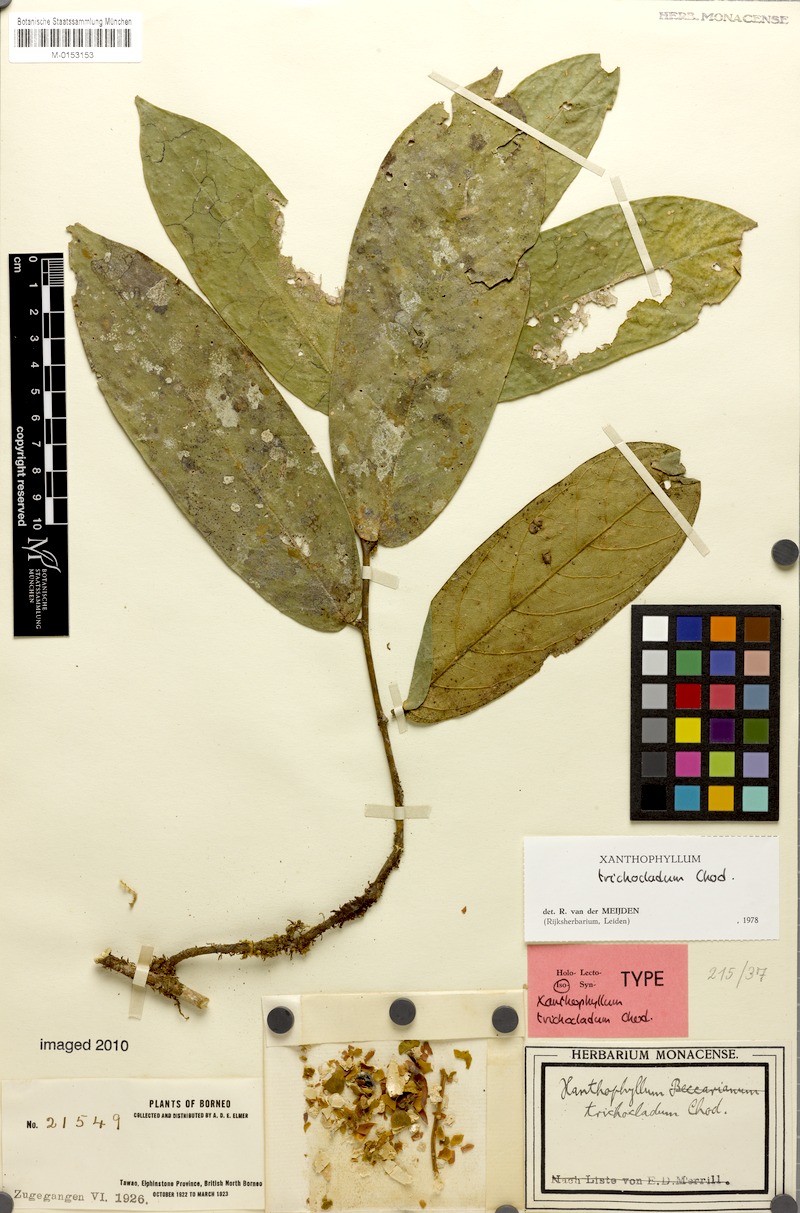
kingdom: Plantae
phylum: Tracheophyta
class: Magnoliopsida
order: Fabales
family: Polygalaceae
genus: Xanthophyllum
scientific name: Xanthophyllum trichocladum
